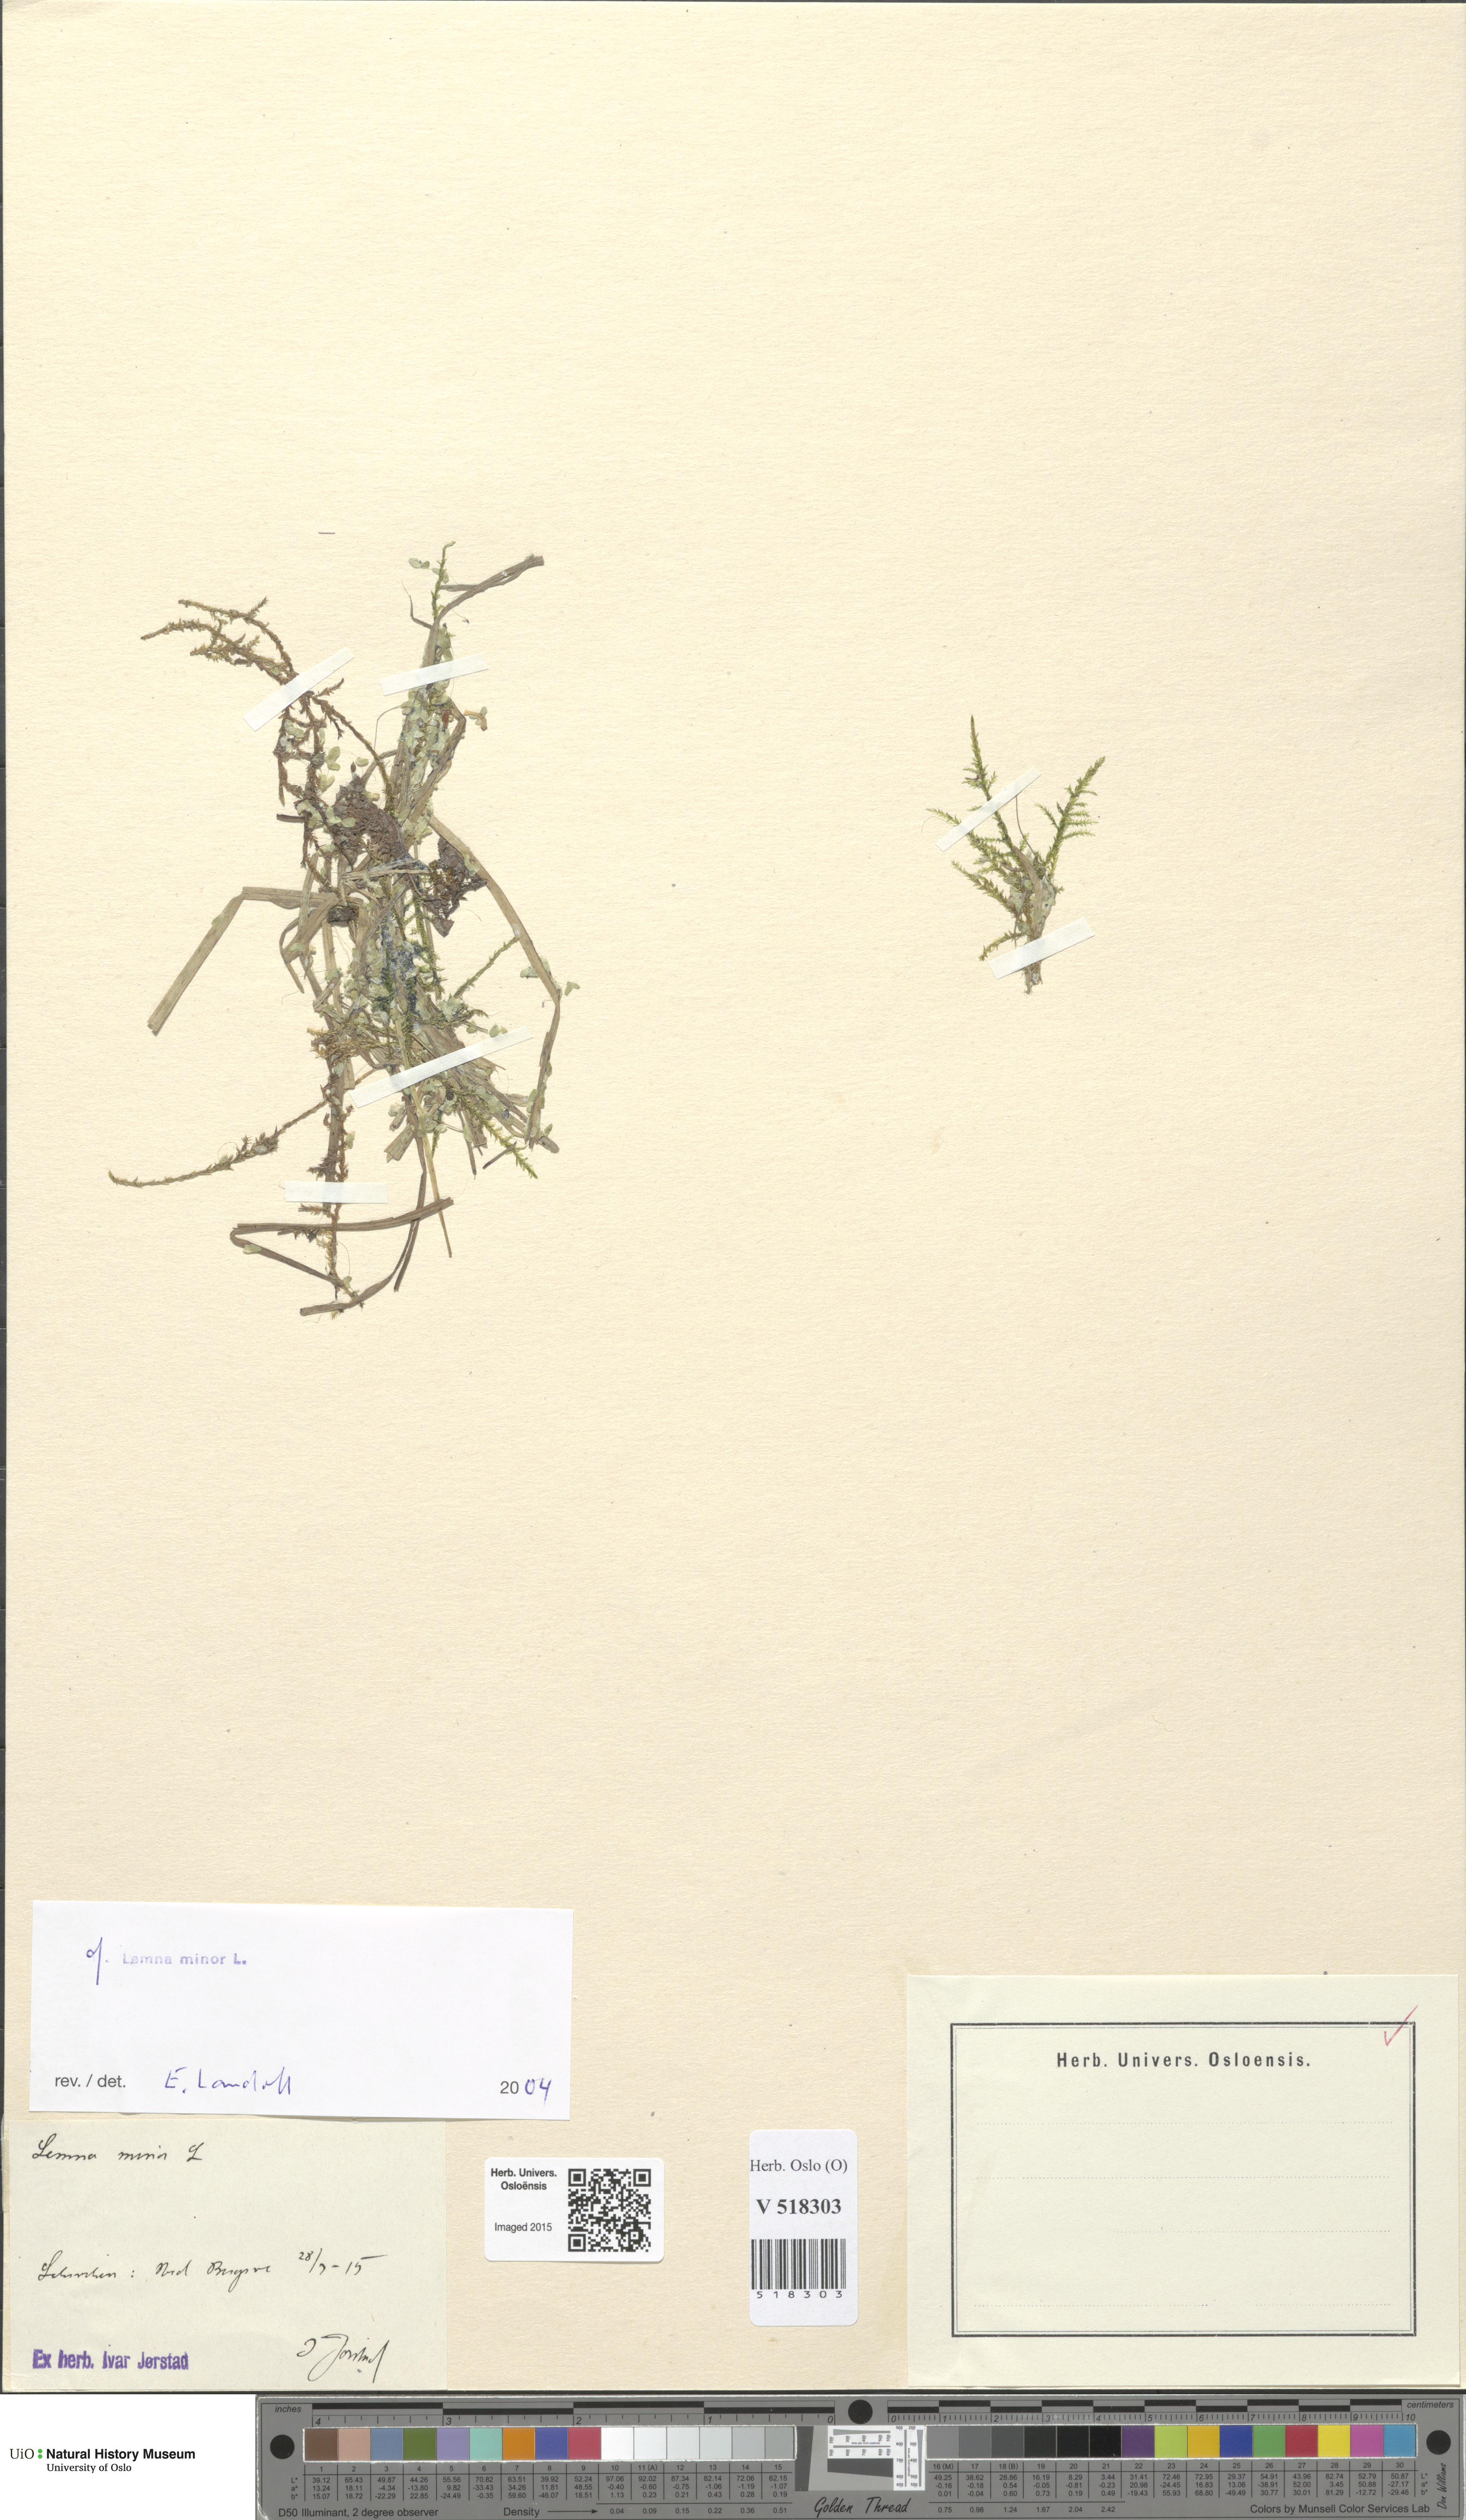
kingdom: Plantae
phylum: Tracheophyta
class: Liliopsida
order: Alismatales
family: Araceae
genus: Lemna
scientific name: Lemna minor
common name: Common duckweed
